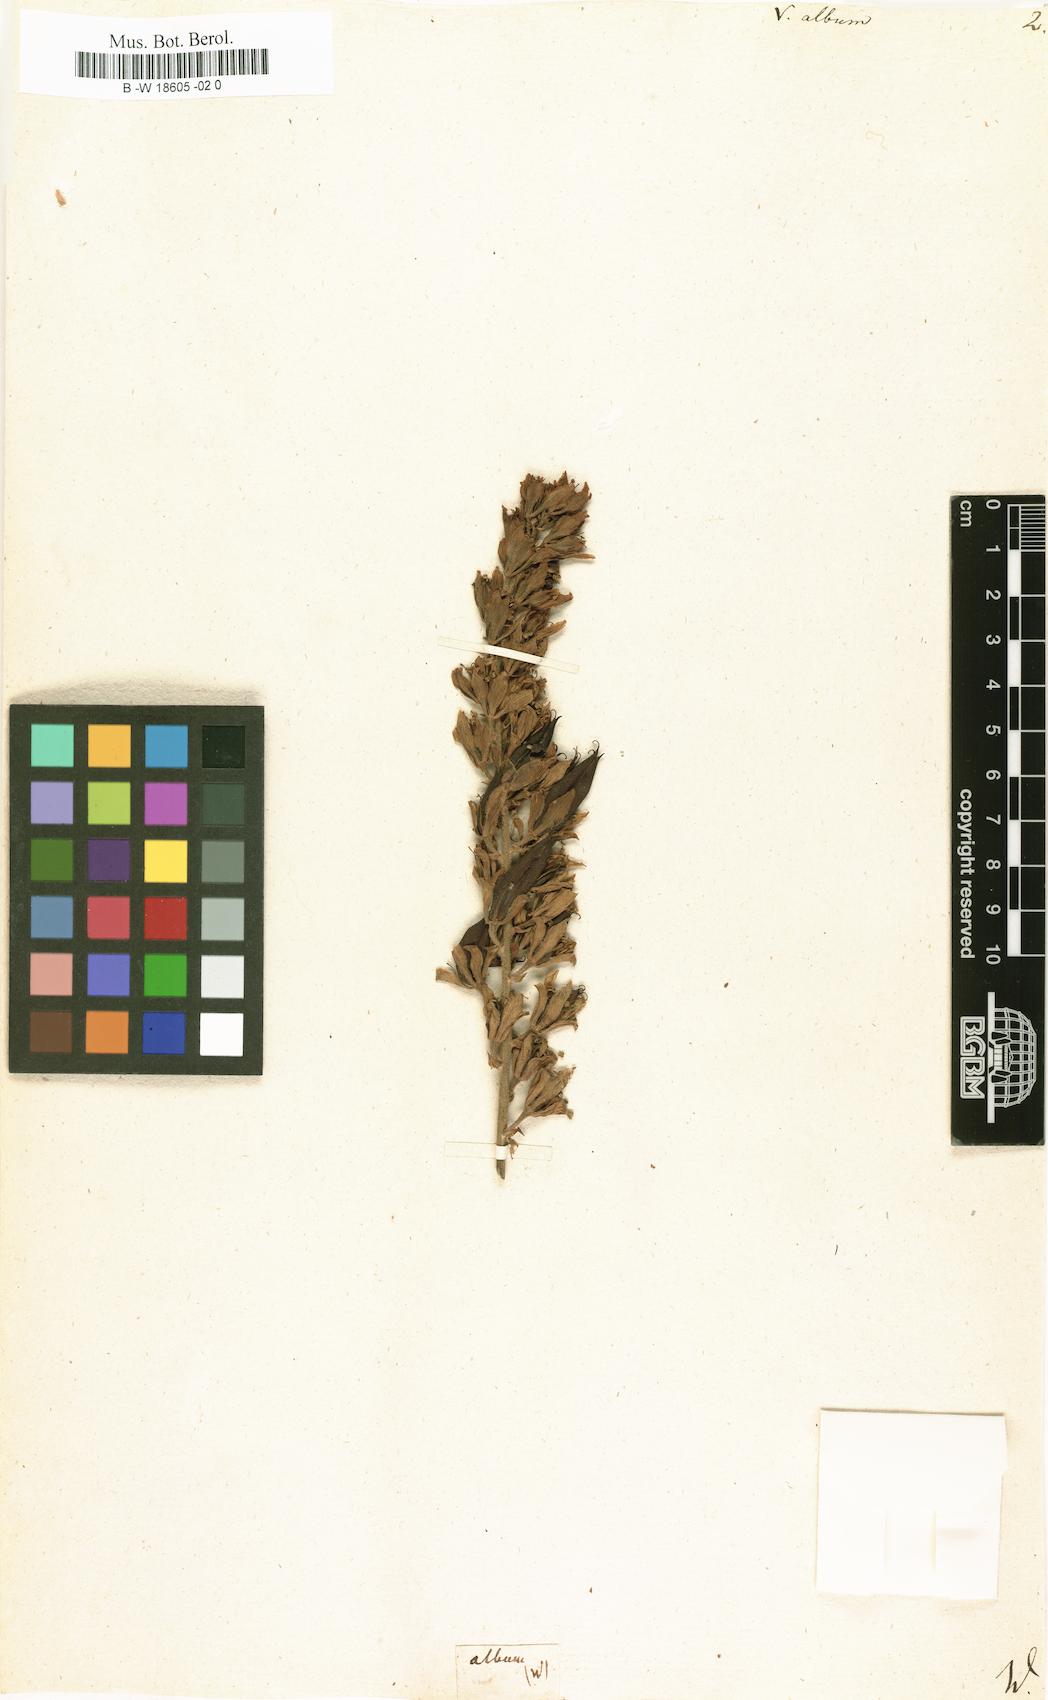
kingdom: Plantae
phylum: Tracheophyta
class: Liliopsida
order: Liliales
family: Melanthiaceae
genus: Veratrum
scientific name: Veratrum album
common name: White veratrum
